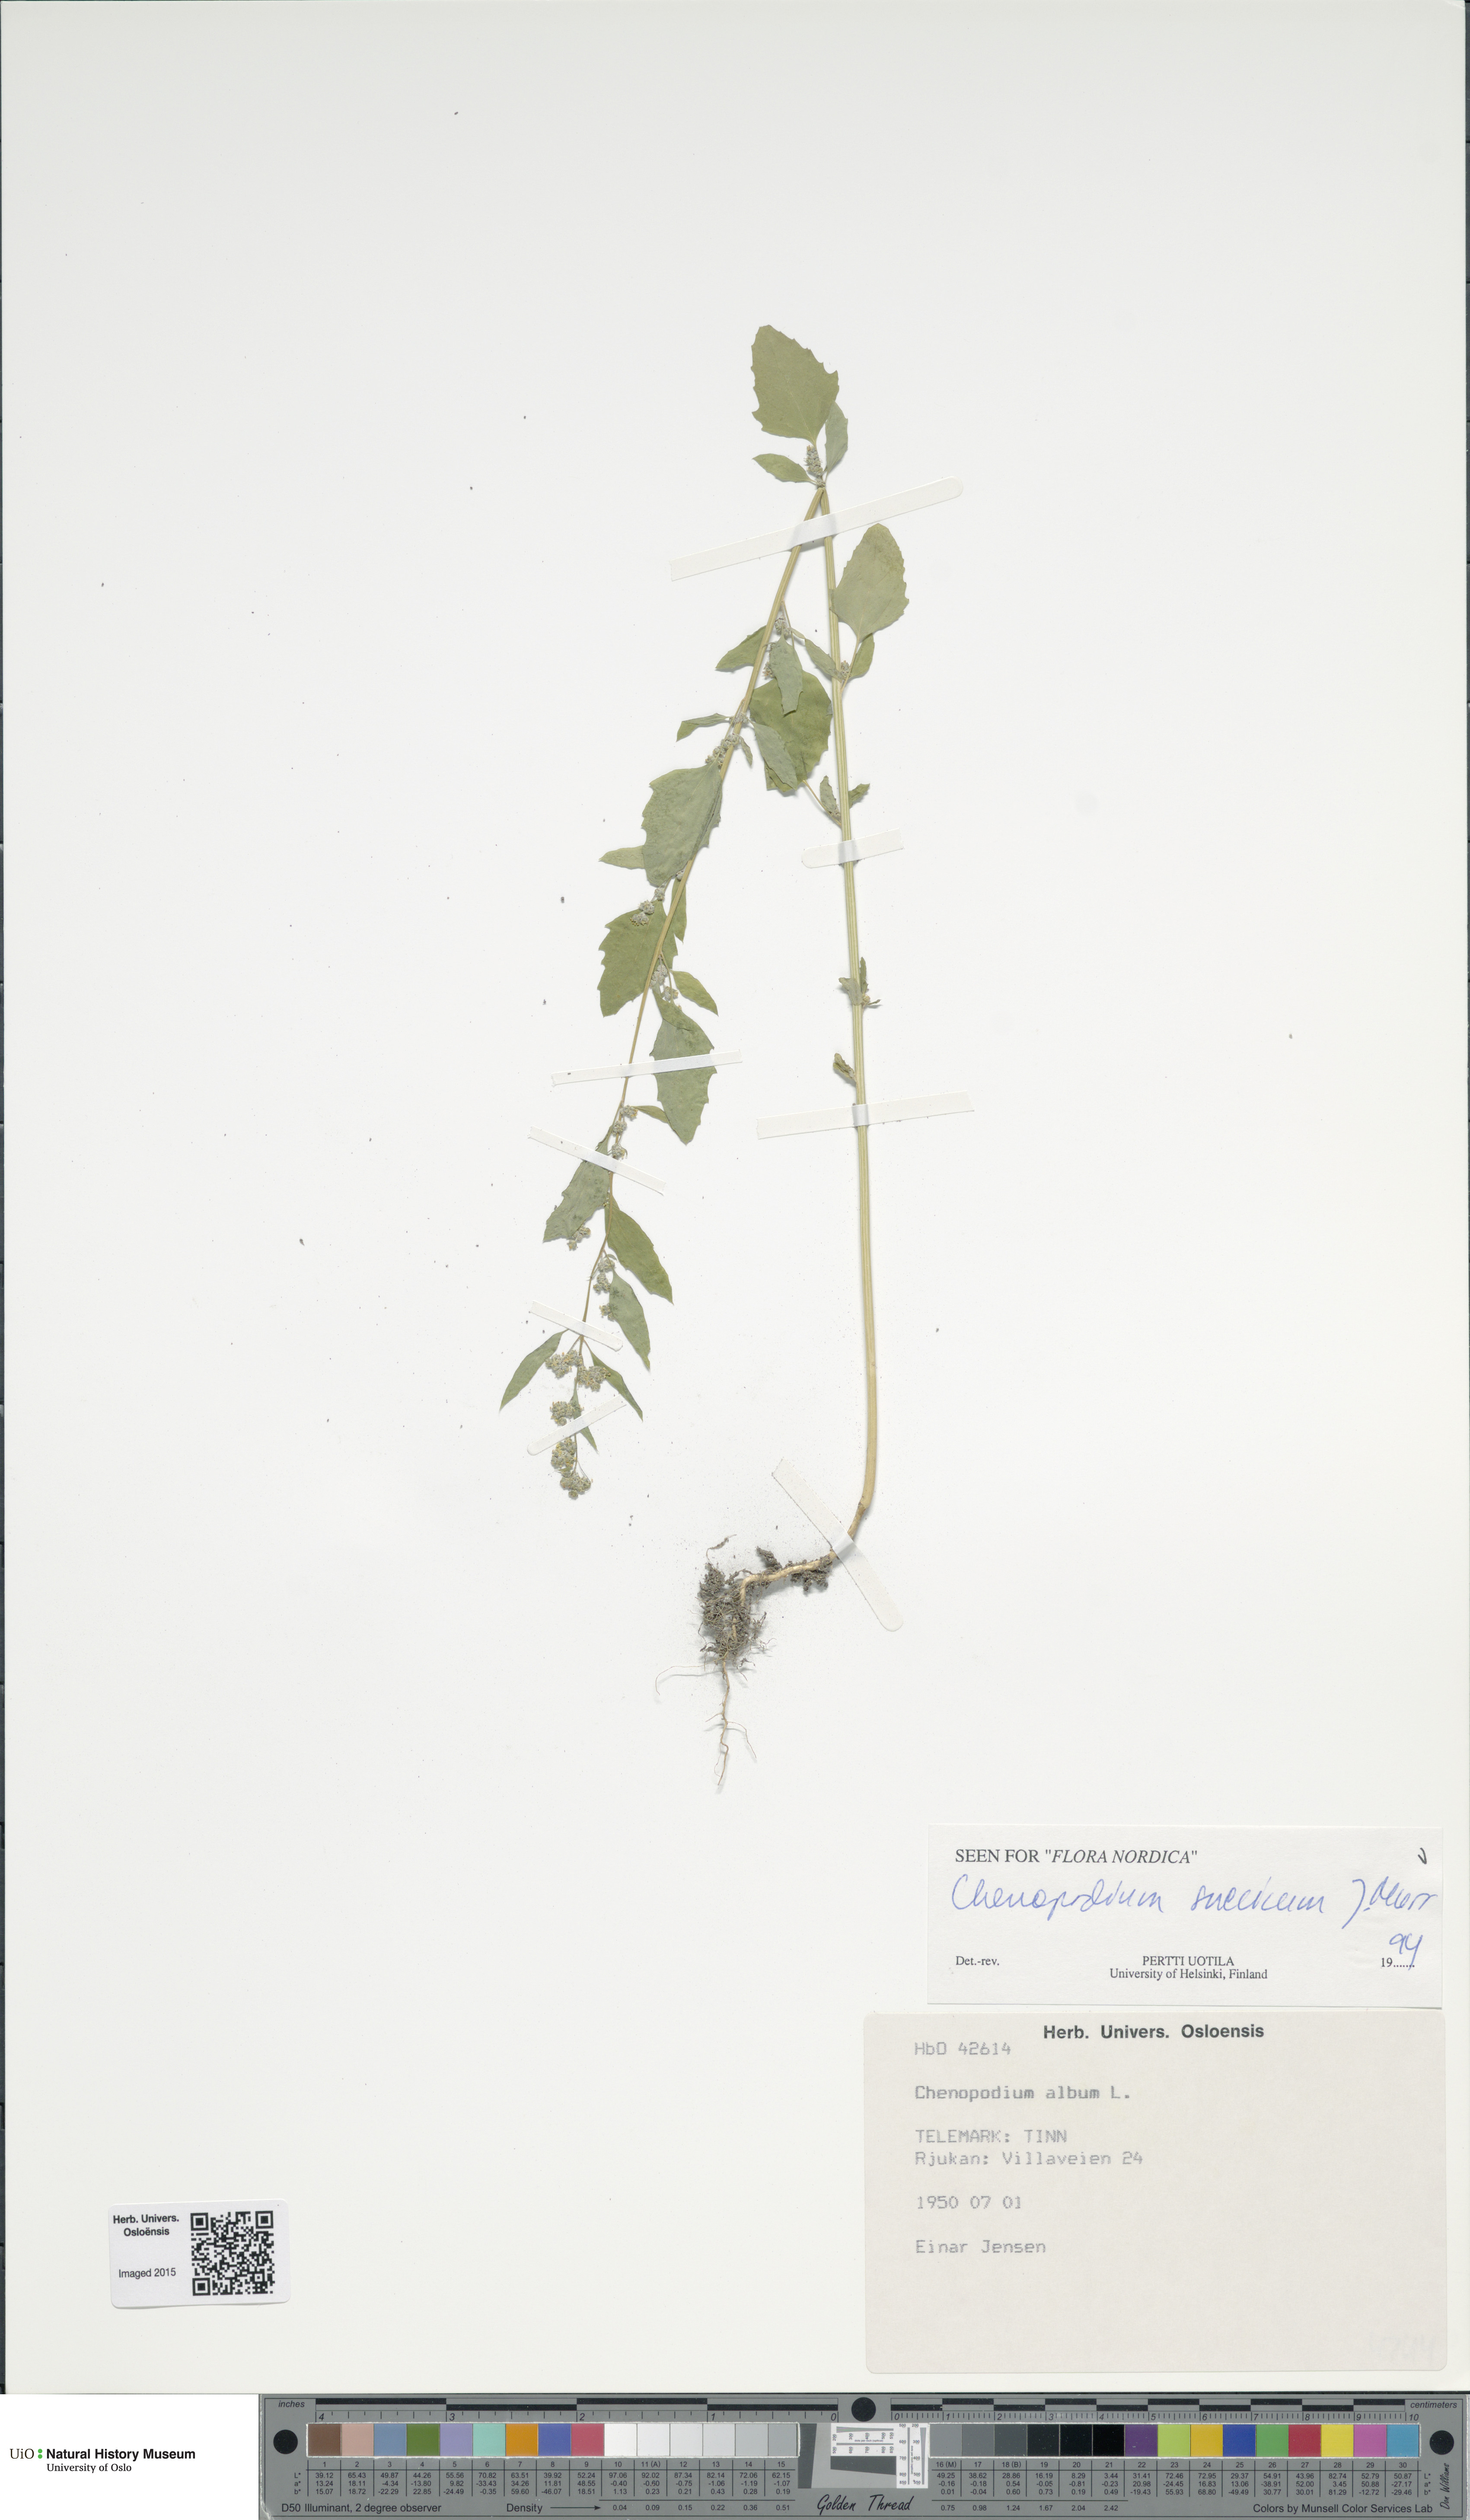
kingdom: Plantae
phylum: Tracheophyta
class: Magnoliopsida
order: Caryophyllales
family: Amaranthaceae
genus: Chenopodium
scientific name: Chenopodium suecicum
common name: Swedish goosefoot
